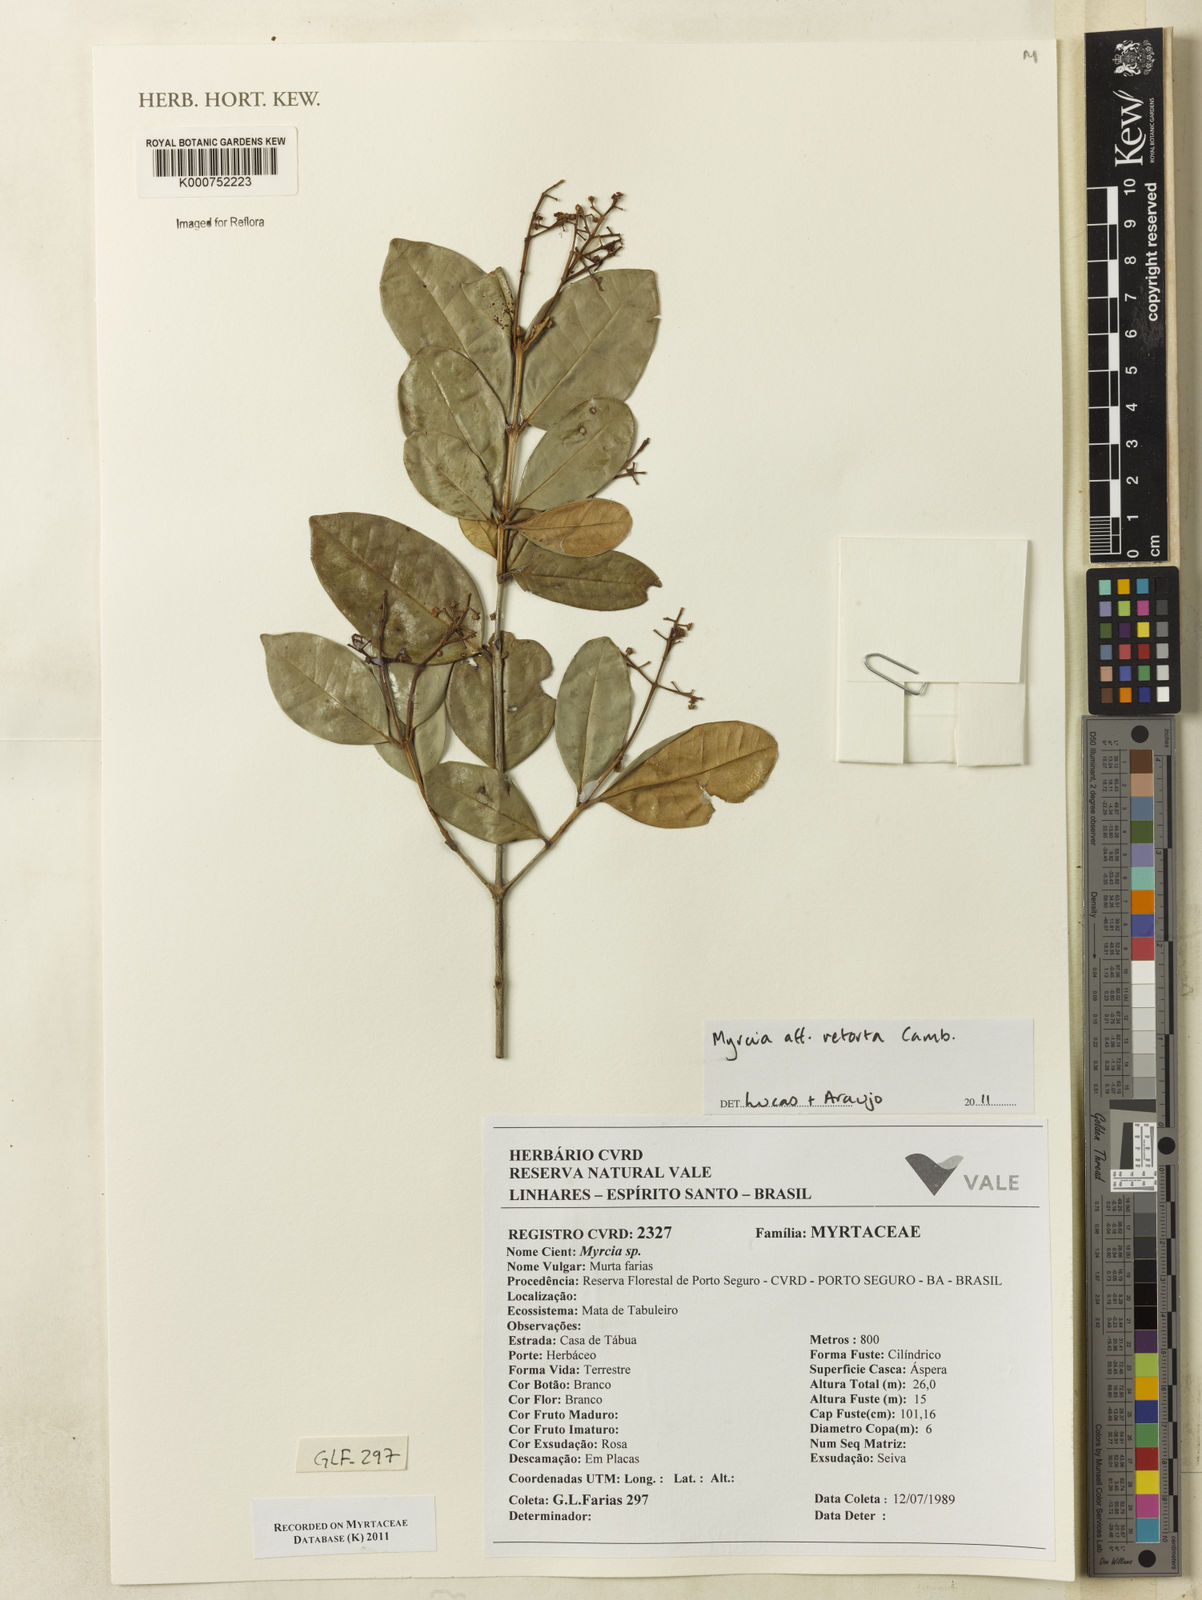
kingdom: Plantae
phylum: Tracheophyta
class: Magnoliopsida
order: Myrtales
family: Myrtaceae
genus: Myrcia
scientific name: Myrcia retorta
